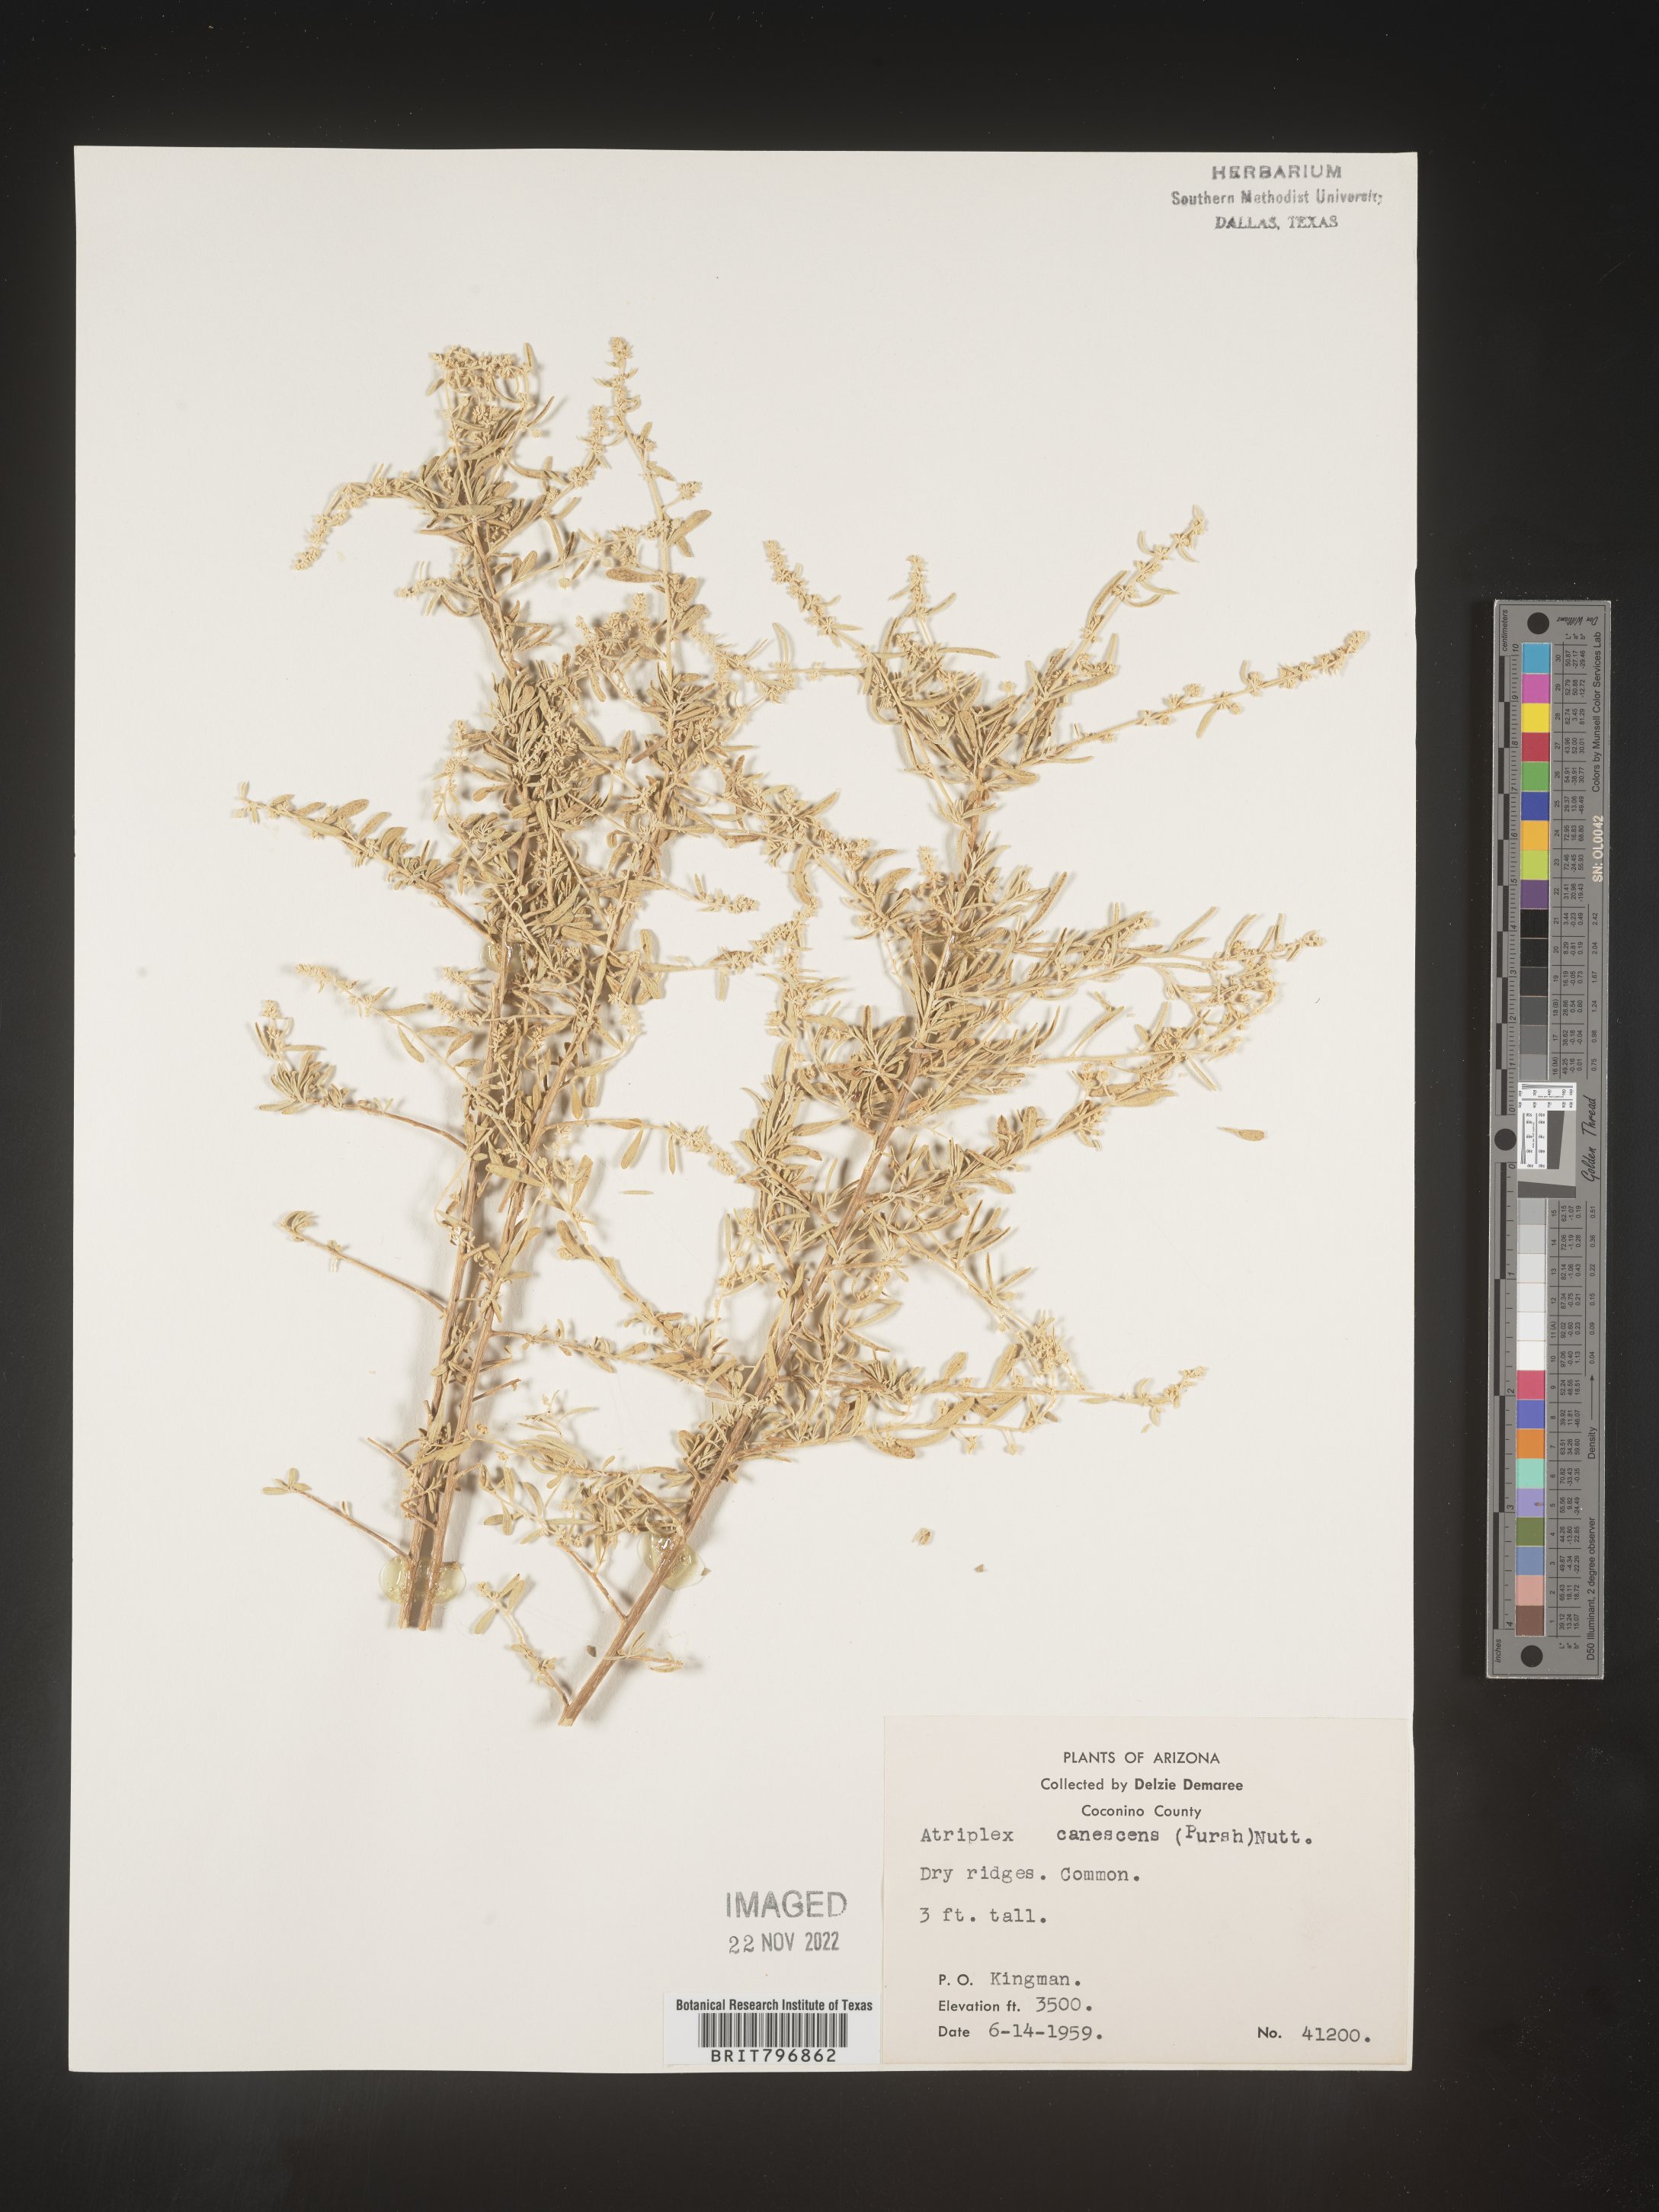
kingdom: Plantae
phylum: Tracheophyta
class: Magnoliopsida
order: Caryophyllales
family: Amaranthaceae
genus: Atriplex
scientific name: Atriplex canescens
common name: Four-wing saltbush
